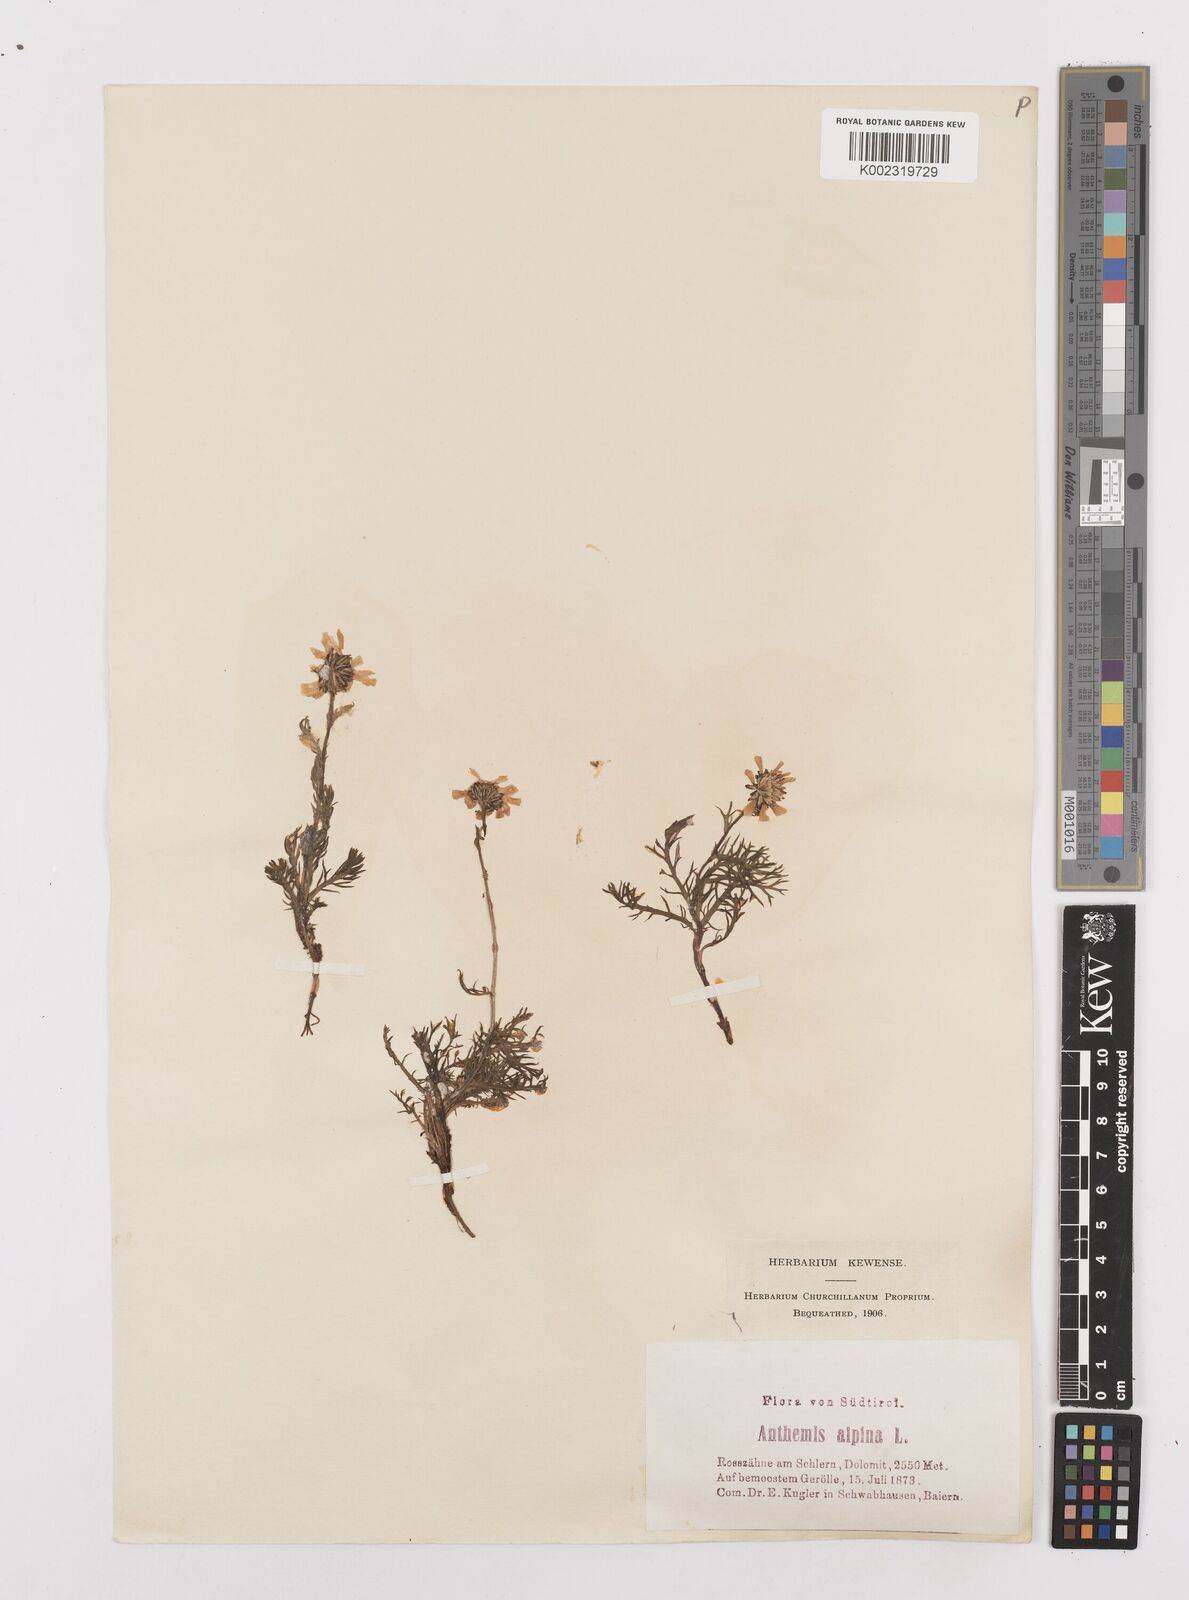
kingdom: Plantae
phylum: Tracheophyta
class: Magnoliopsida
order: Asterales
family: Asteraceae
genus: Achillea
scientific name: Achillea oxyloba
